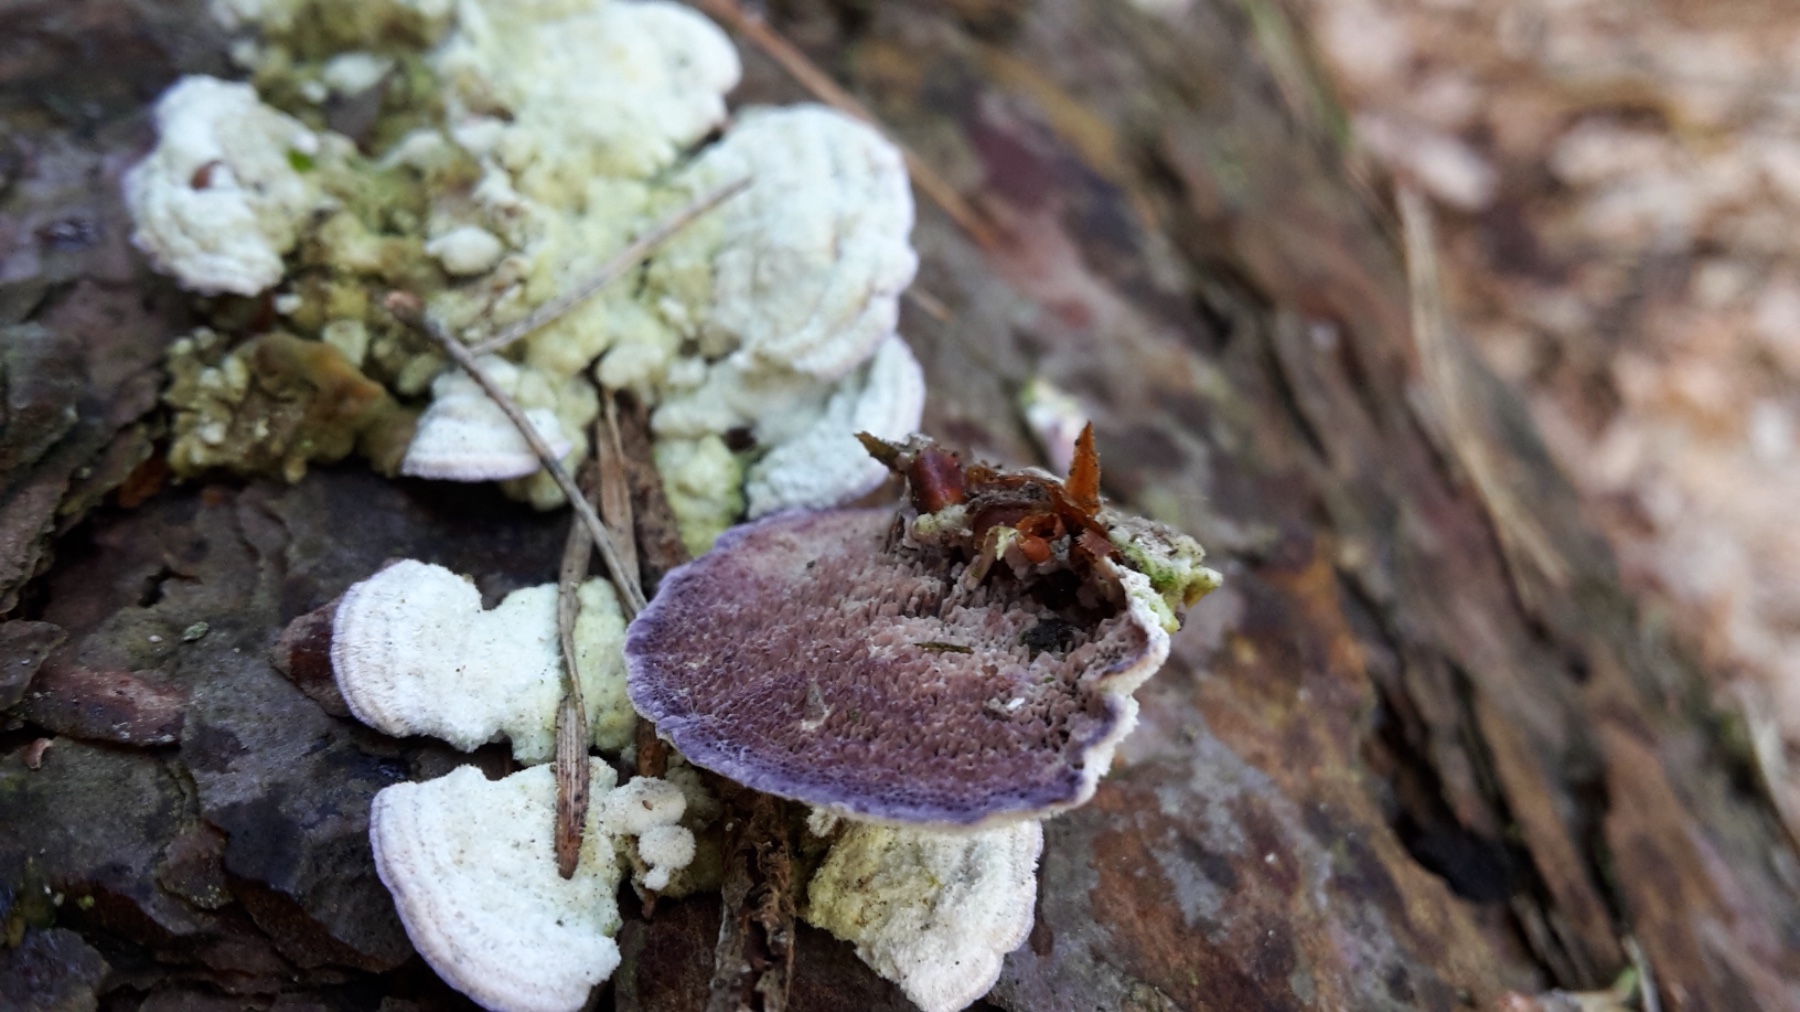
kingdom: Fungi
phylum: Basidiomycota
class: Agaricomycetes
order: Hymenochaetales
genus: Trichaptum
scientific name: Trichaptum fuscoviolaceum
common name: tandet violporesvamp
